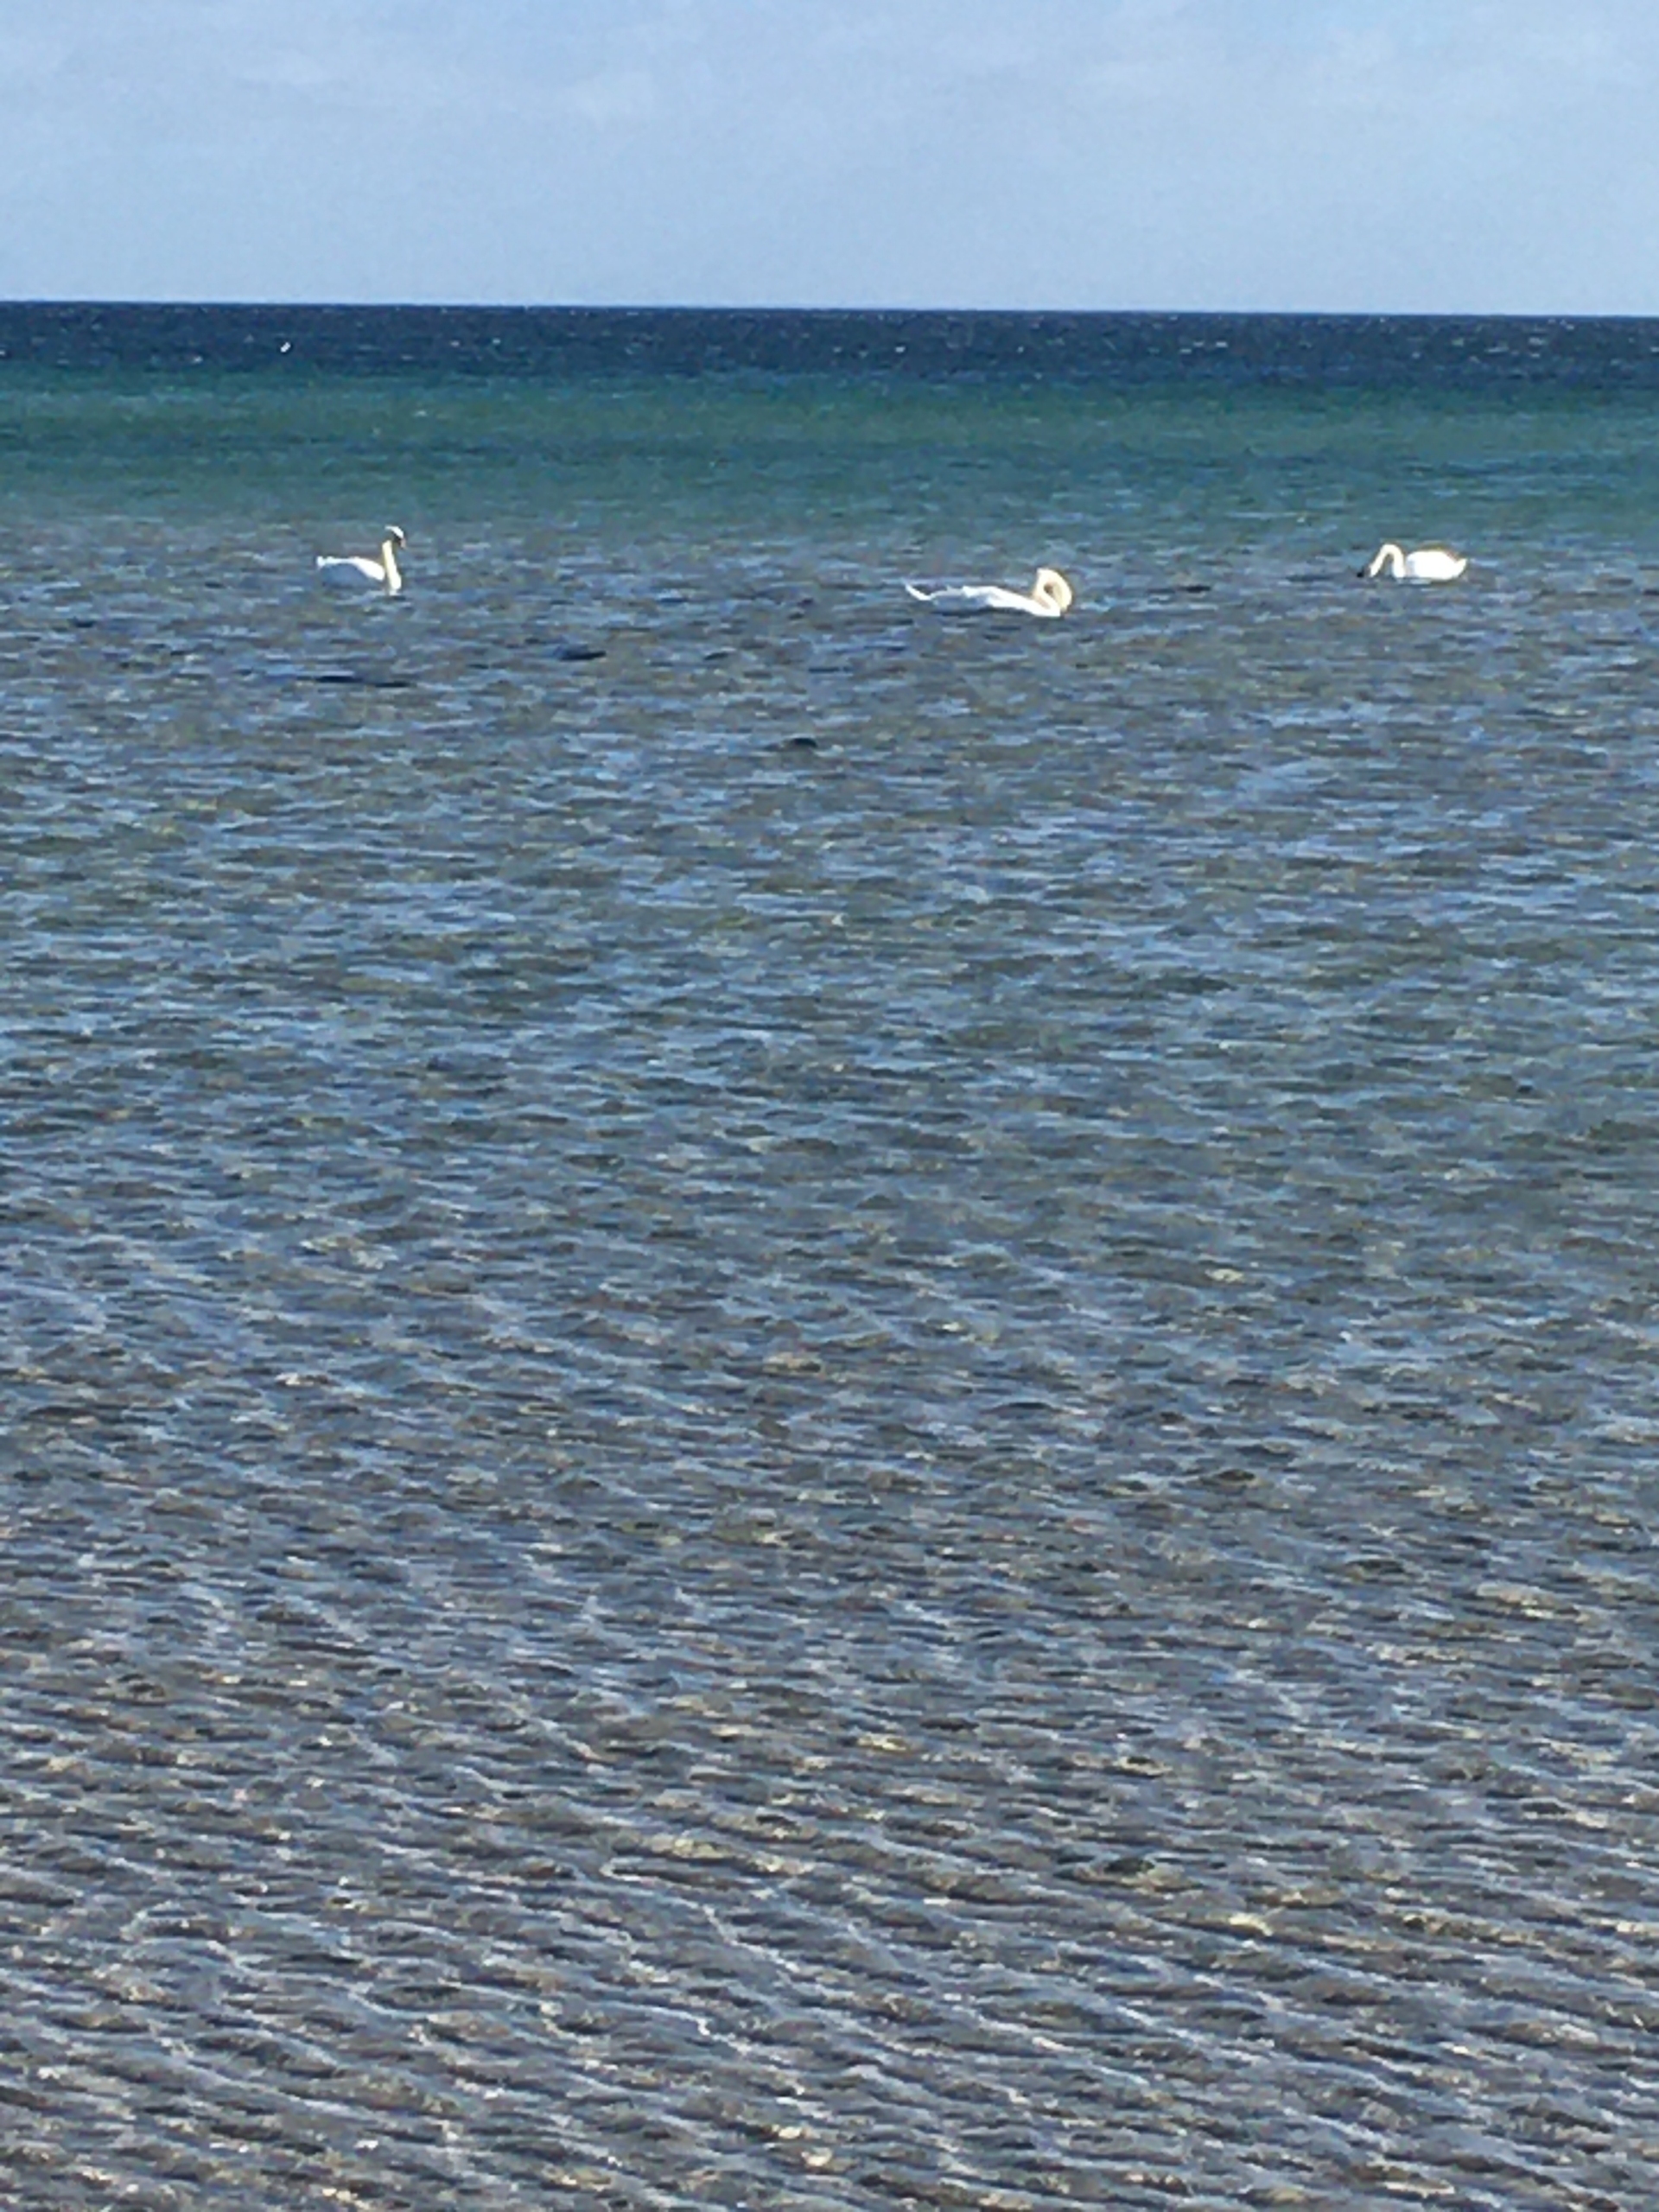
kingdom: Animalia
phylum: Chordata
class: Aves
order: Anseriformes
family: Anatidae
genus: Cygnus
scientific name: Cygnus olor
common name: Knopsvane
